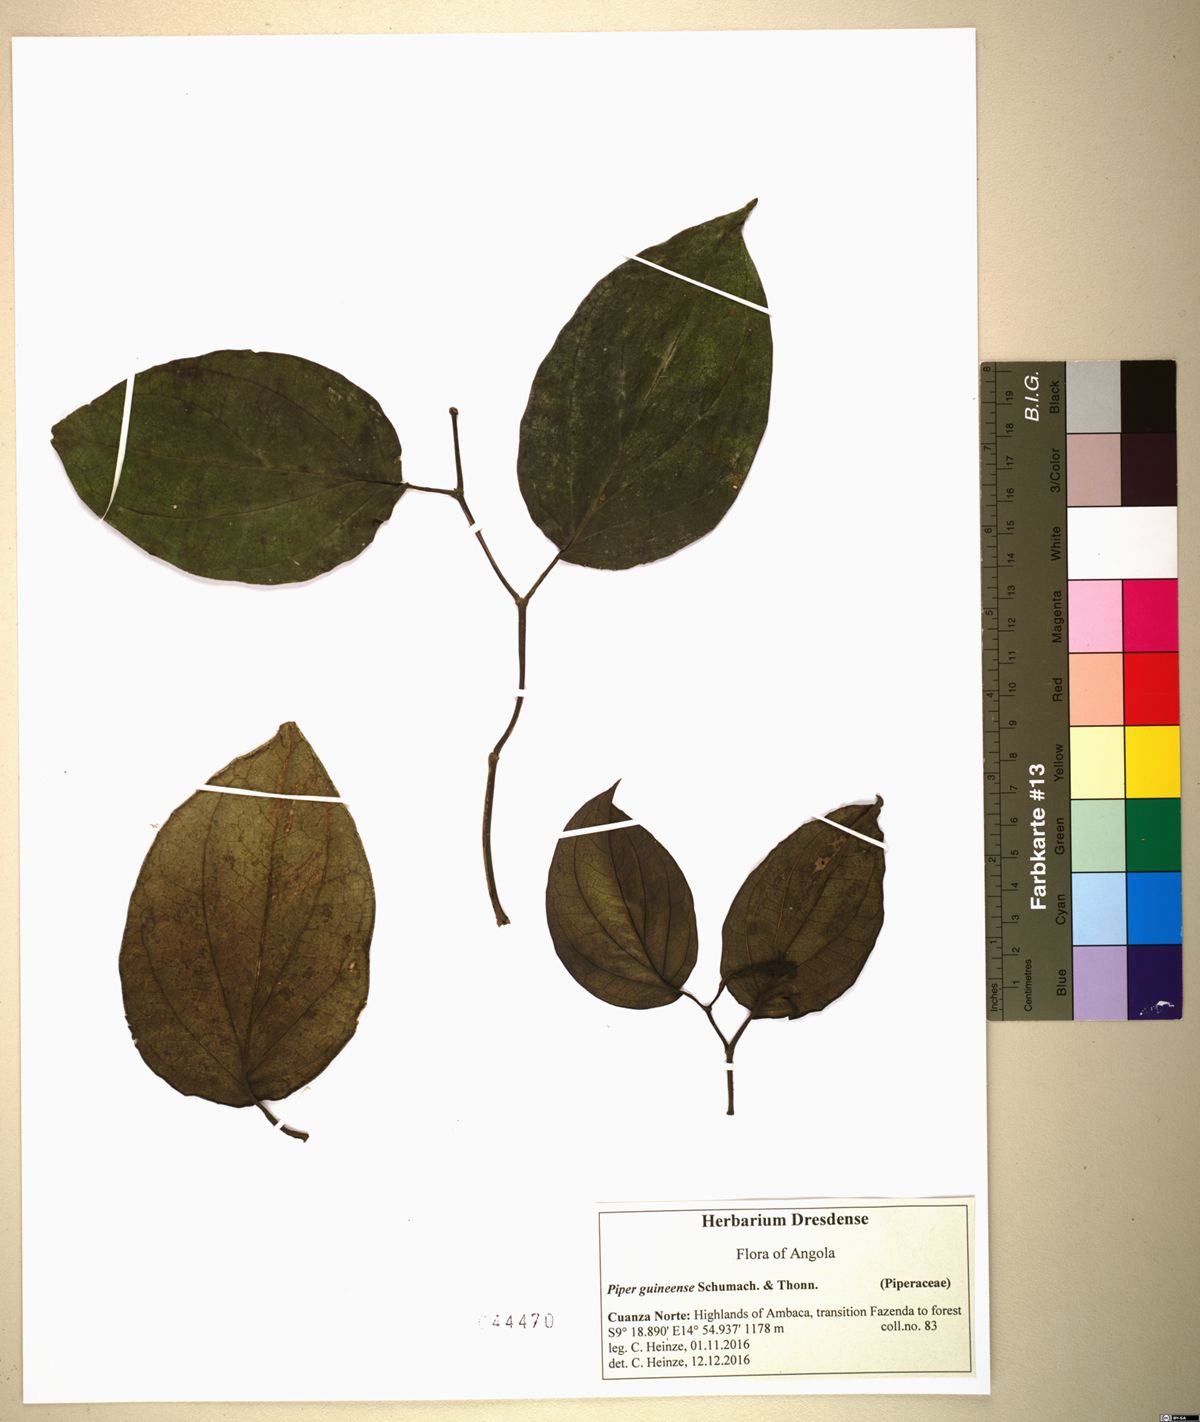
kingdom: Plantae
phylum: Tracheophyta
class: Magnoliopsida
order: Piperales
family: Piperaceae
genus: Piper
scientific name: Piper guineense
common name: Benin pepper
